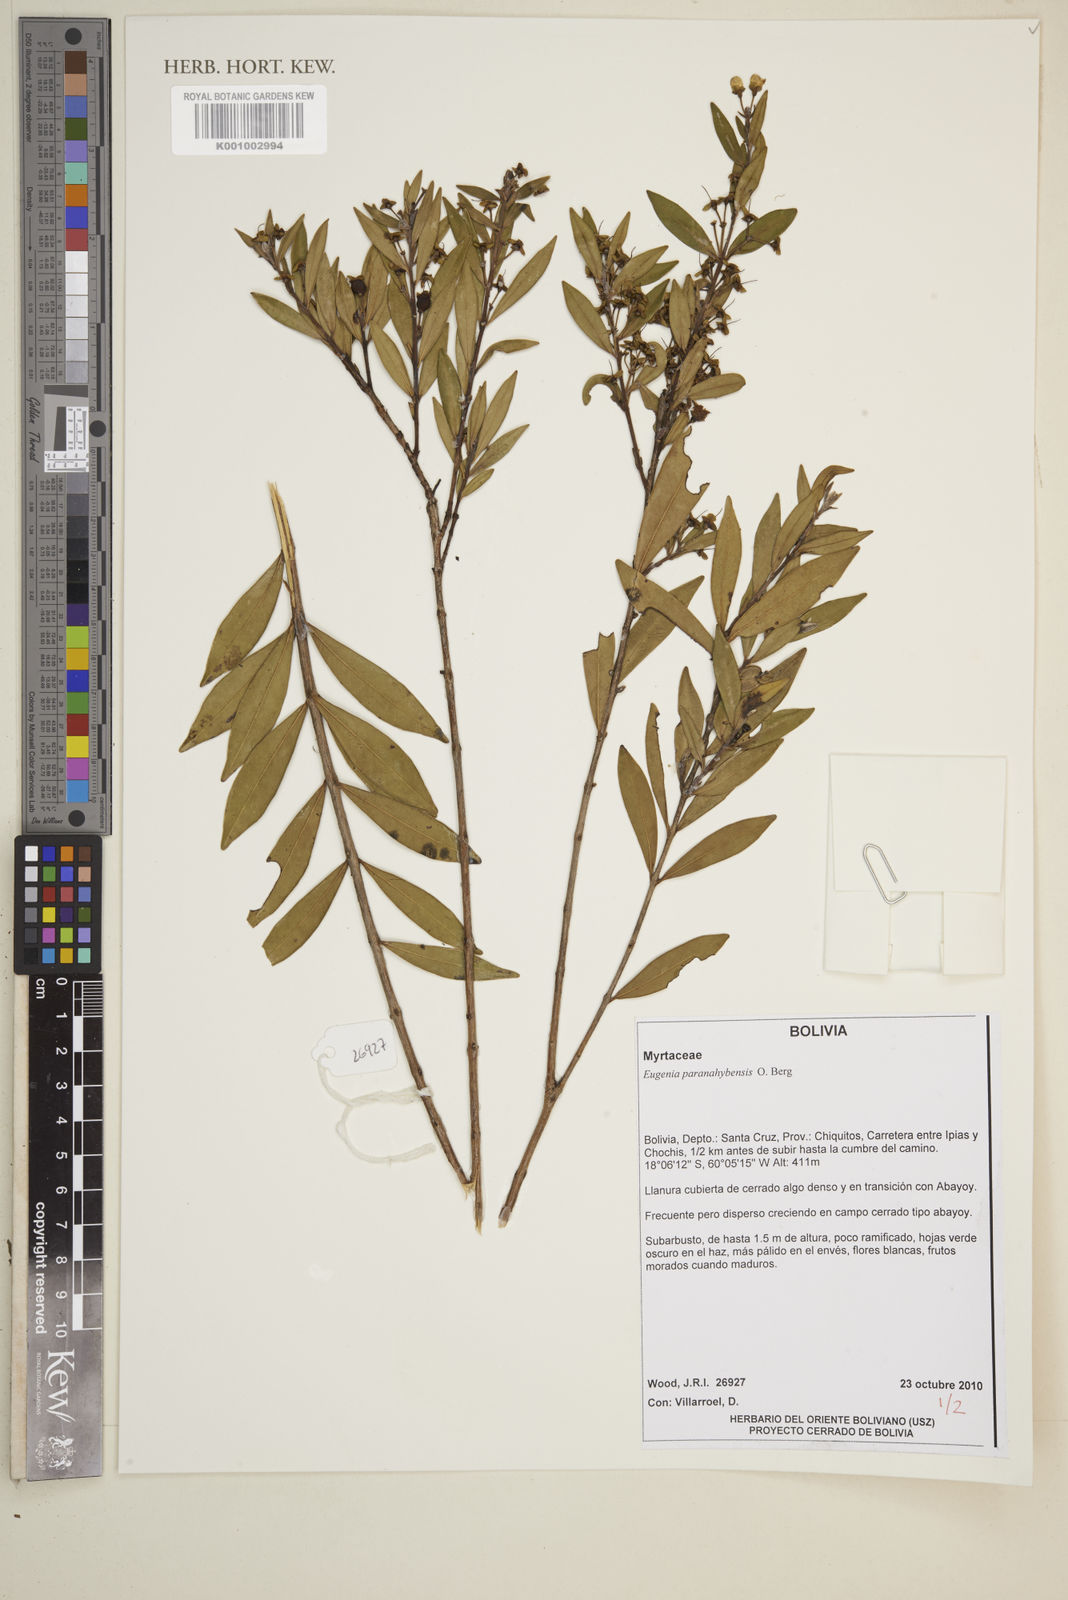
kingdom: Plantae
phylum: Tracheophyta
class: Magnoliopsida
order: Myrtales
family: Myrtaceae
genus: Eugenia
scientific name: Eugenia paranahybensis
